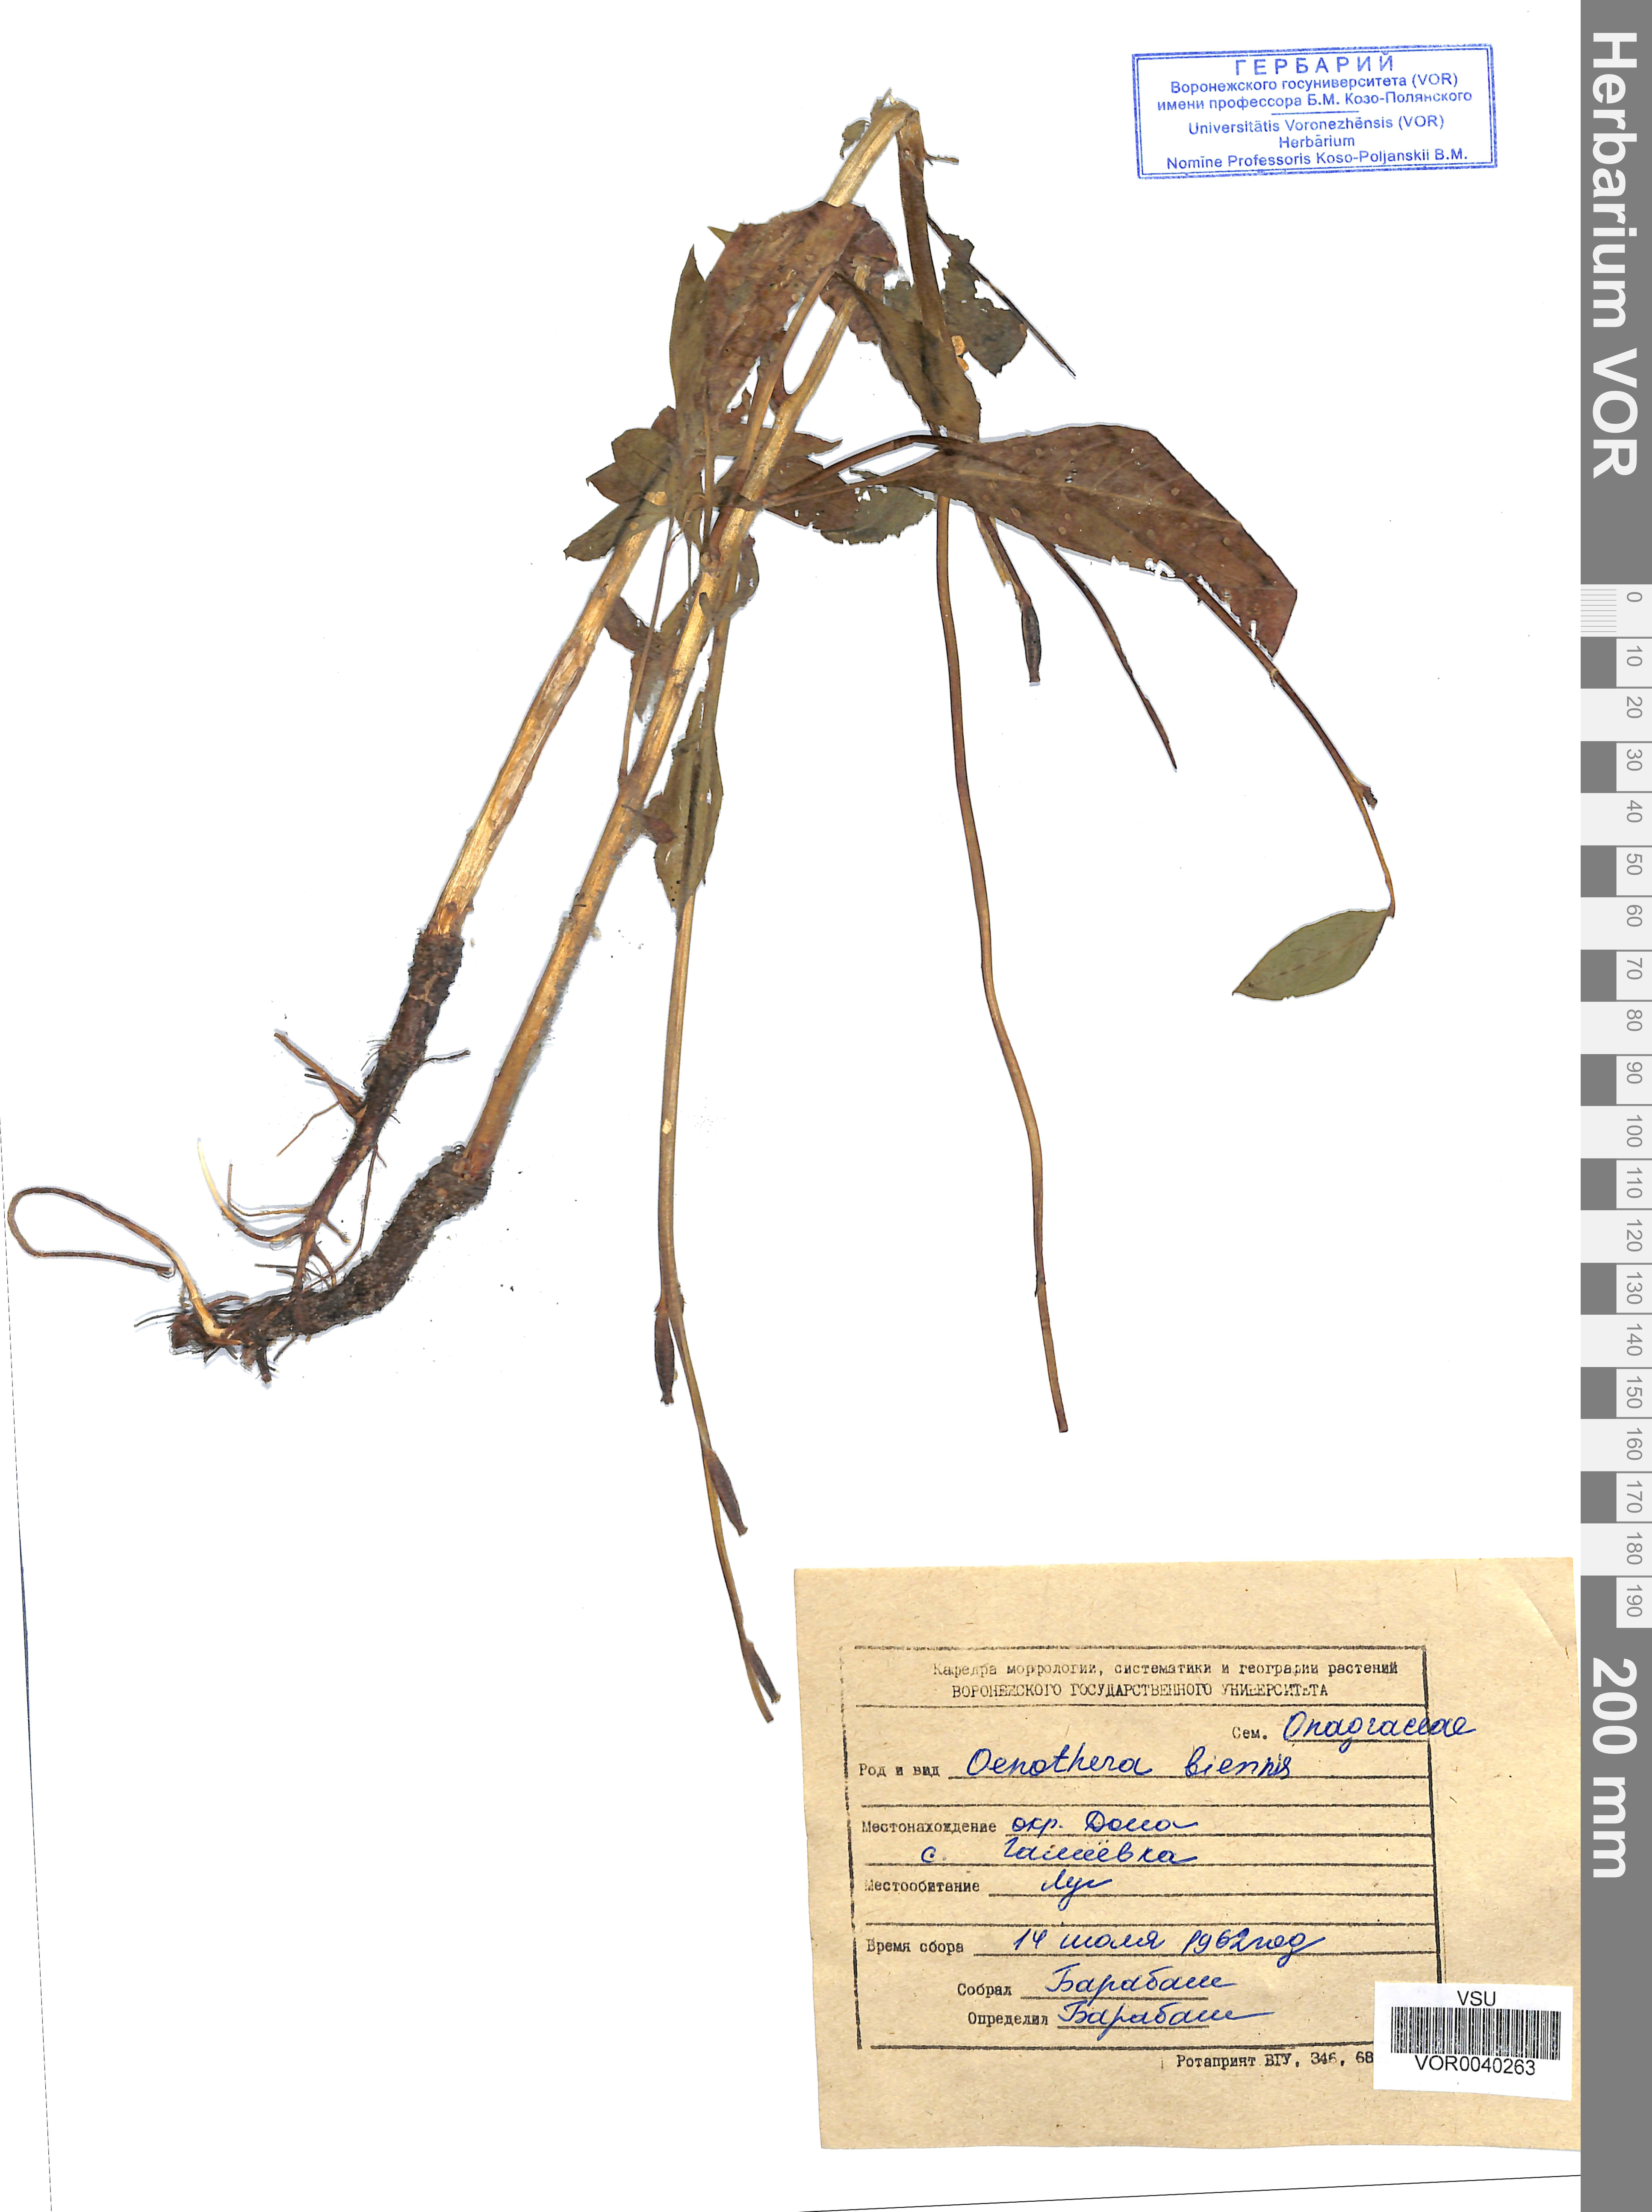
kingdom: Plantae
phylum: Tracheophyta
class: Magnoliopsida
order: Myrtales
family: Onagraceae
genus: Oenothera
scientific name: Oenothera biennis
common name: Common evening-primrose
